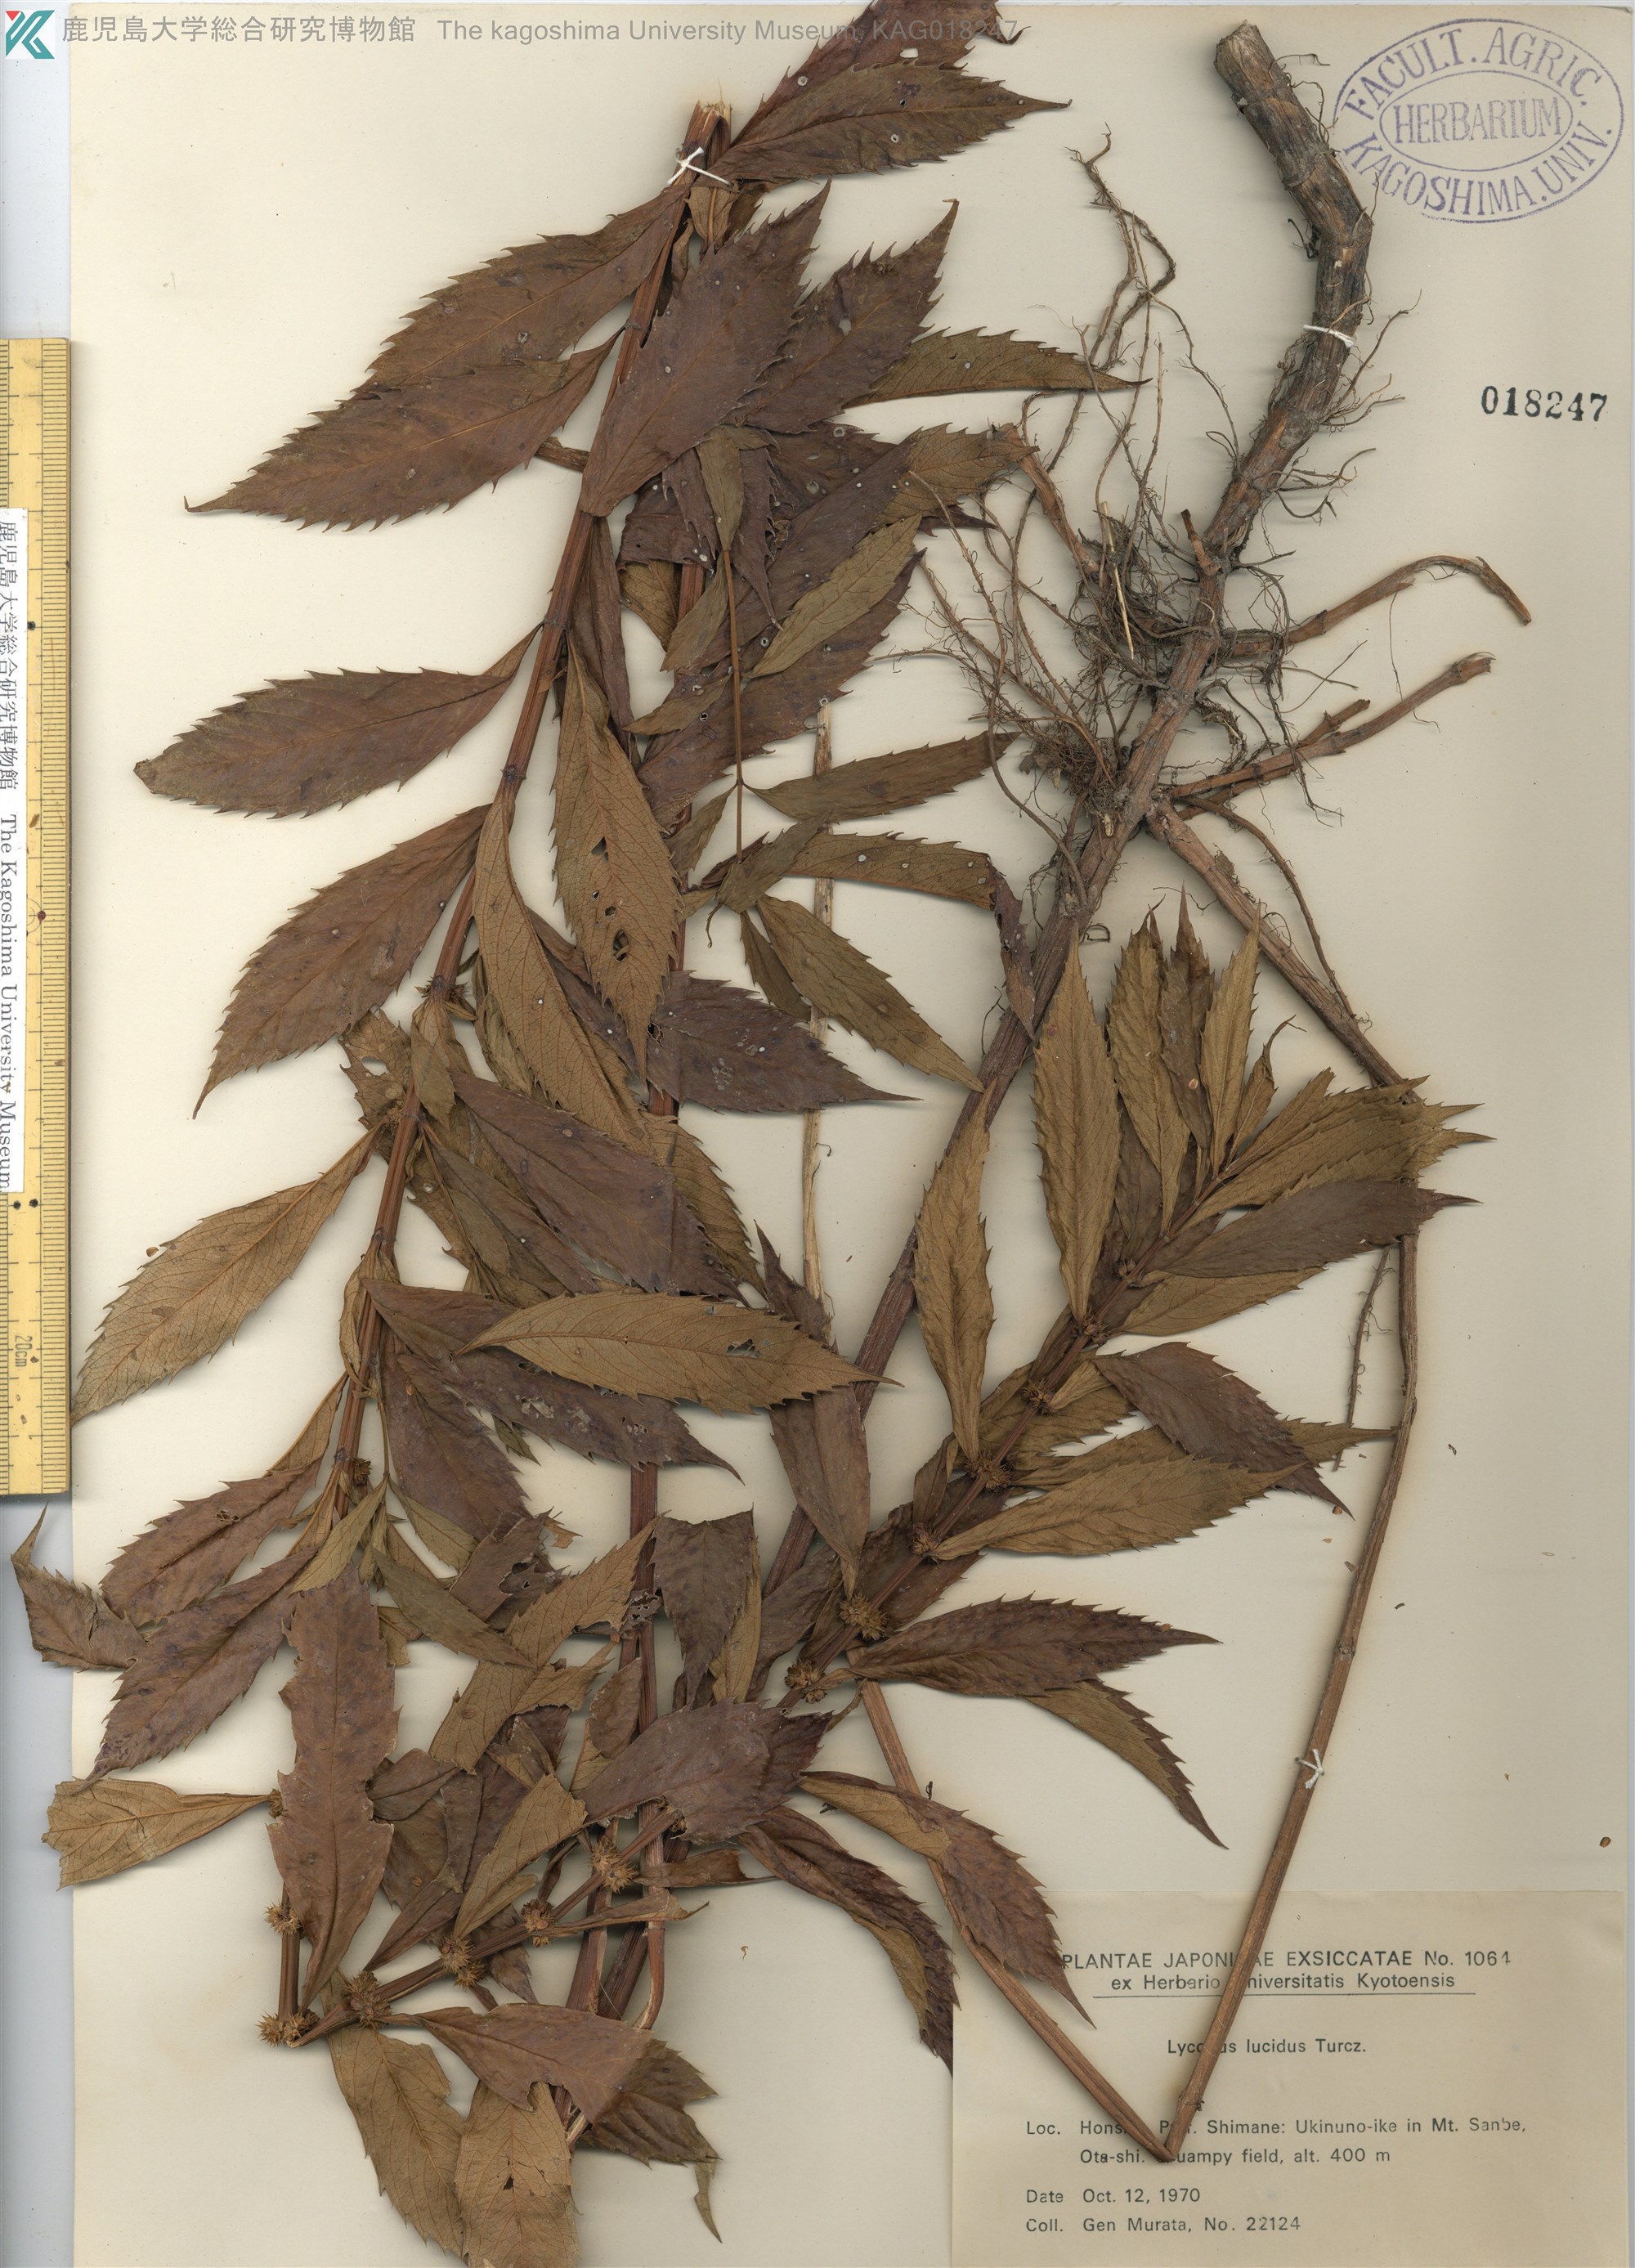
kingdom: Plantae
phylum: Tracheophyta
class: Magnoliopsida
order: Lamiales
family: Lamiaceae
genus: Lycopus
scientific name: Lycopus lucidus
